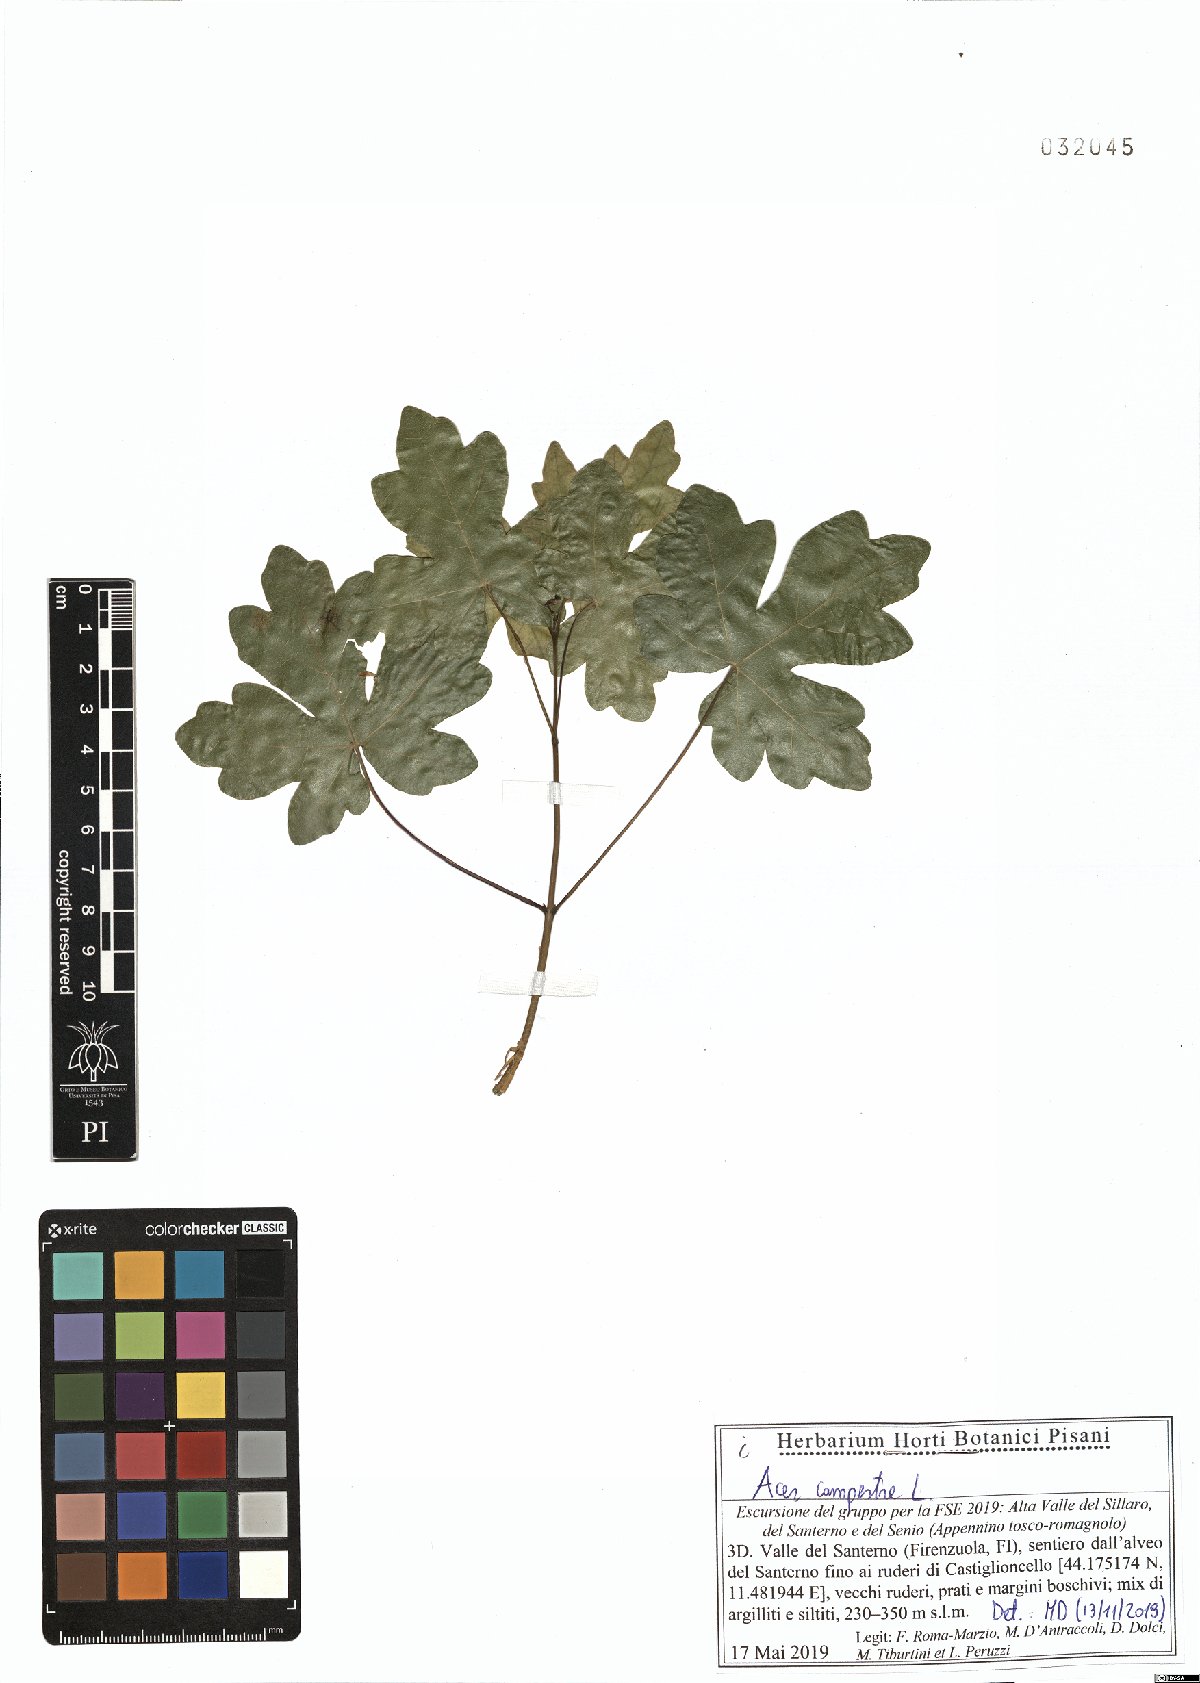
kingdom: Plantae
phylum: Tracheophyta
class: Magnoliopsida
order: Sapindales
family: Sapindaceae
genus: Acer
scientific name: Acer campestre
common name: Field maple
